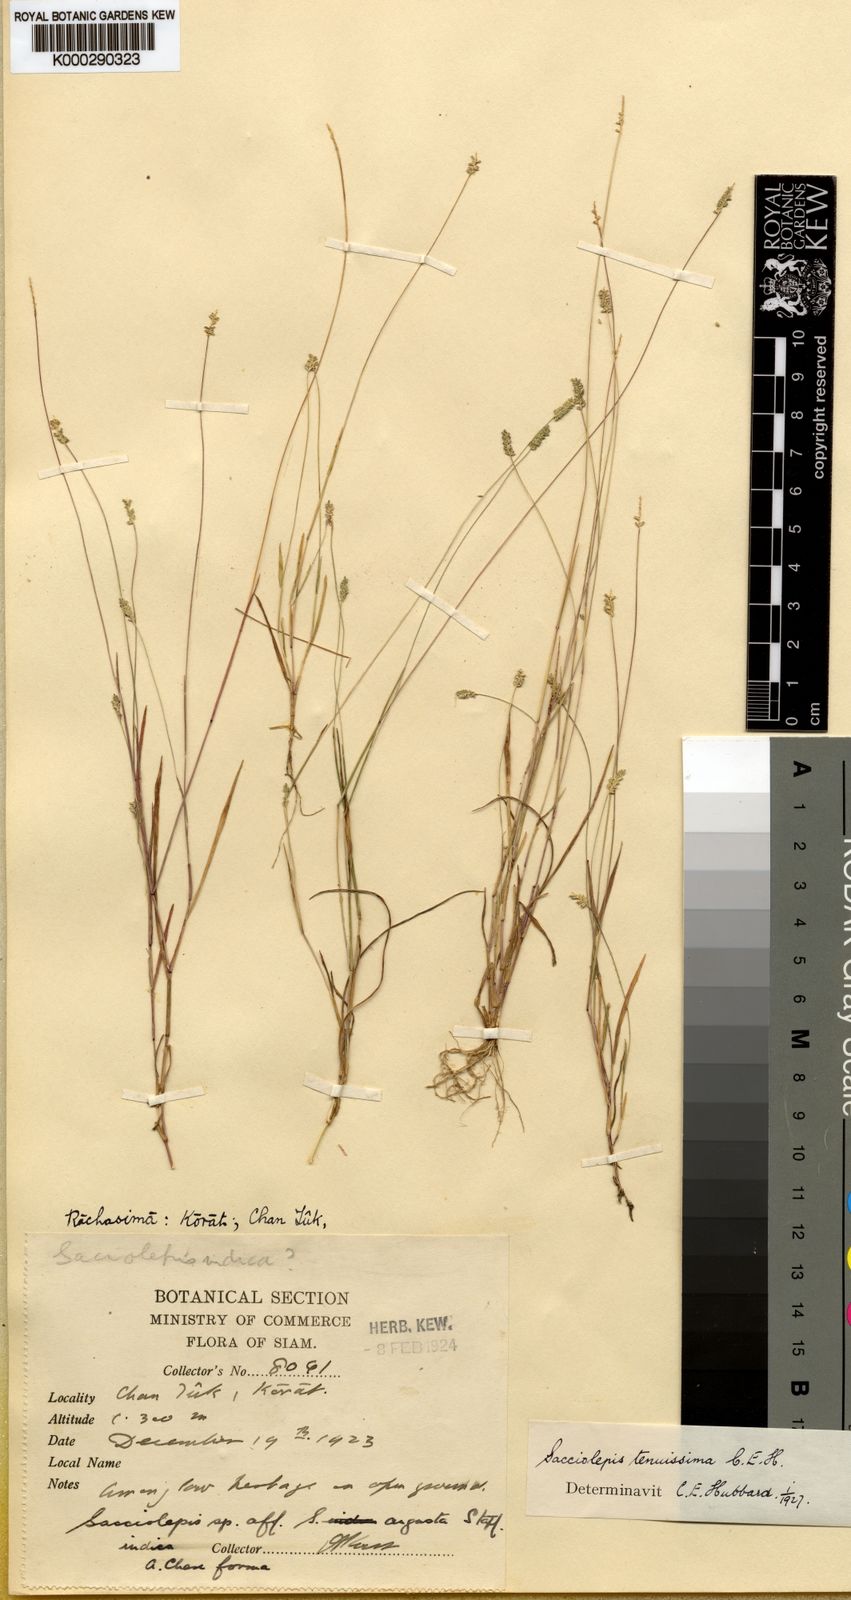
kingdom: Plantae
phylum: Tracheophyta
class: Liliopsida
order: Poales
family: Poaceae
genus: Sacciolepis
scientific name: Sacciolepis tenuissima
